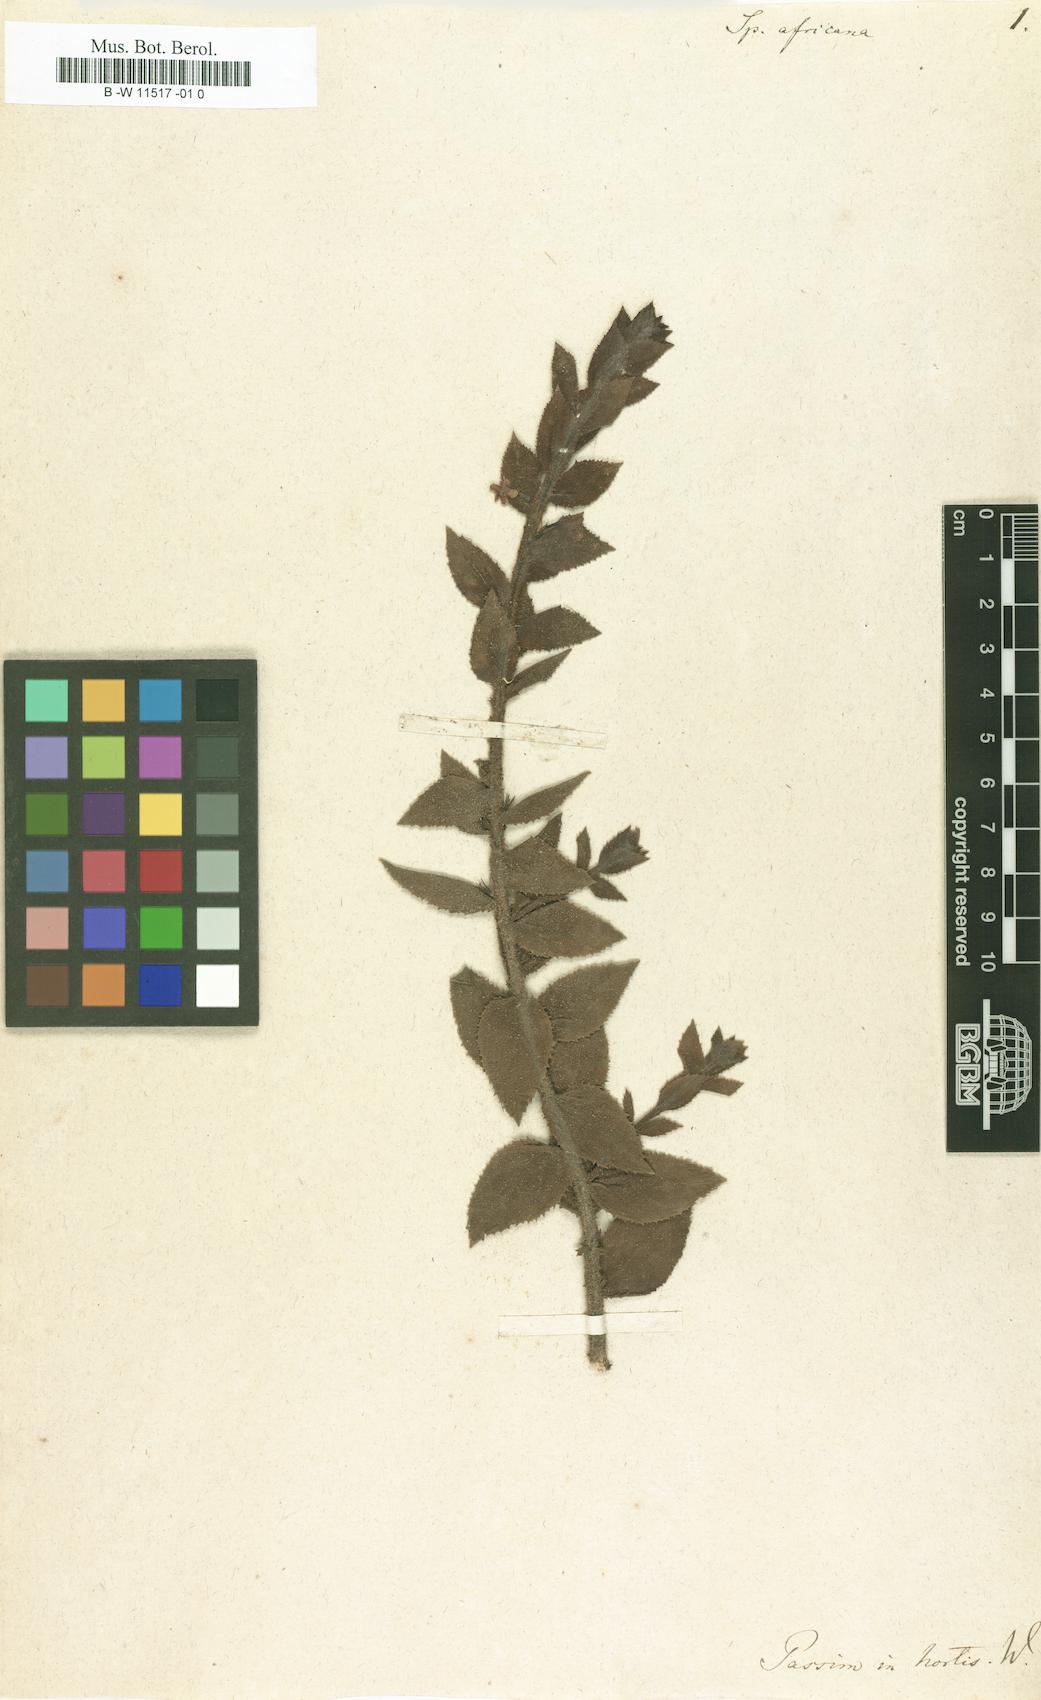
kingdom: Plantae
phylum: Tracheophyta
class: Magnoliopsida
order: Lamiales
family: Scrophulariaceae
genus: Oftia
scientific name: Oftia africana
